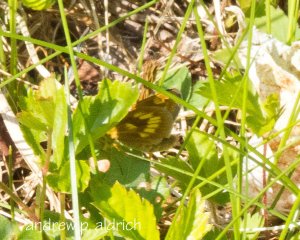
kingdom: Animalia
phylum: Arthropoda
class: Insecta
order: Lepidoptera
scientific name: Lepidoptera
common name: Butterflies
